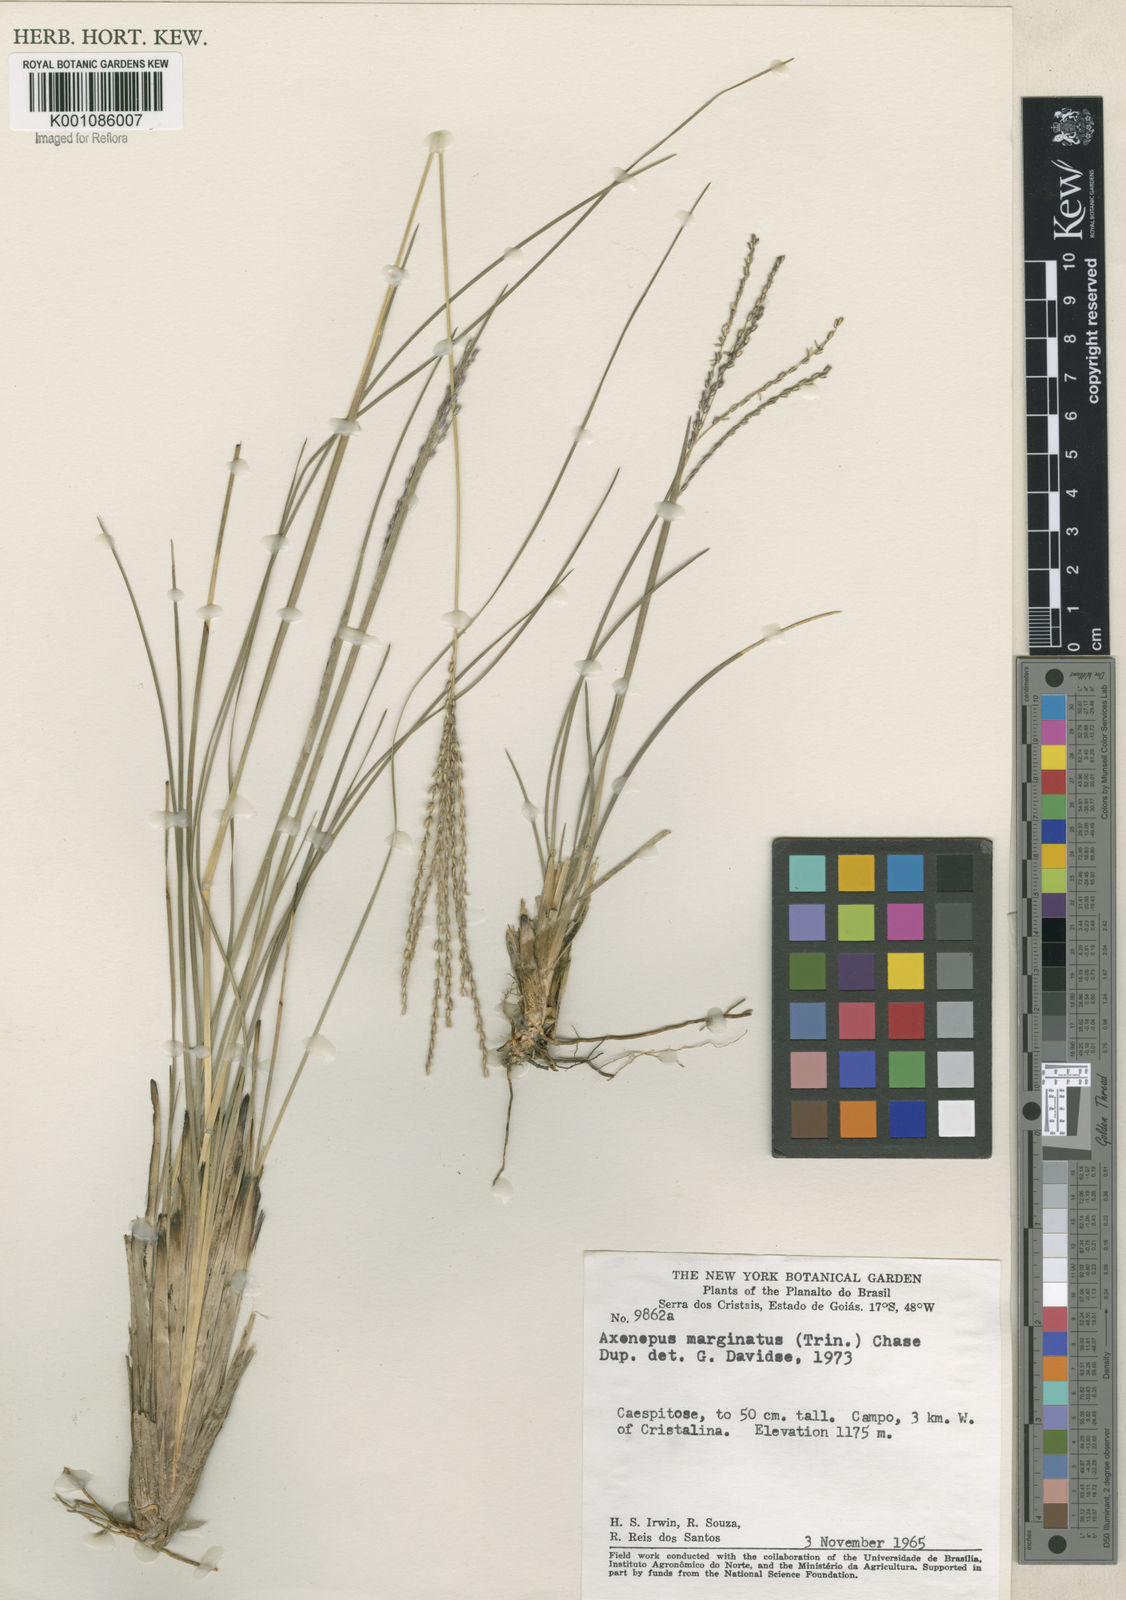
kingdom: Plantae
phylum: Tracheophyta
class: Liliopsida
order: Poales
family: Poaceae
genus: Axonopus
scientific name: Axonopus
